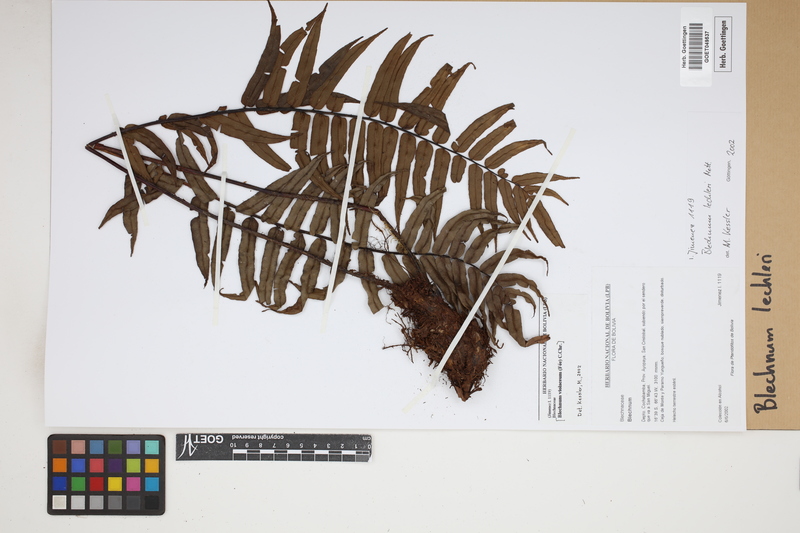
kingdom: Plantae
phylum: Tracheophyta
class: Polypodiopsida
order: Polypodiales
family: Blechnaceae
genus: Parablechnum
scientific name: Parablechnum lechleri
